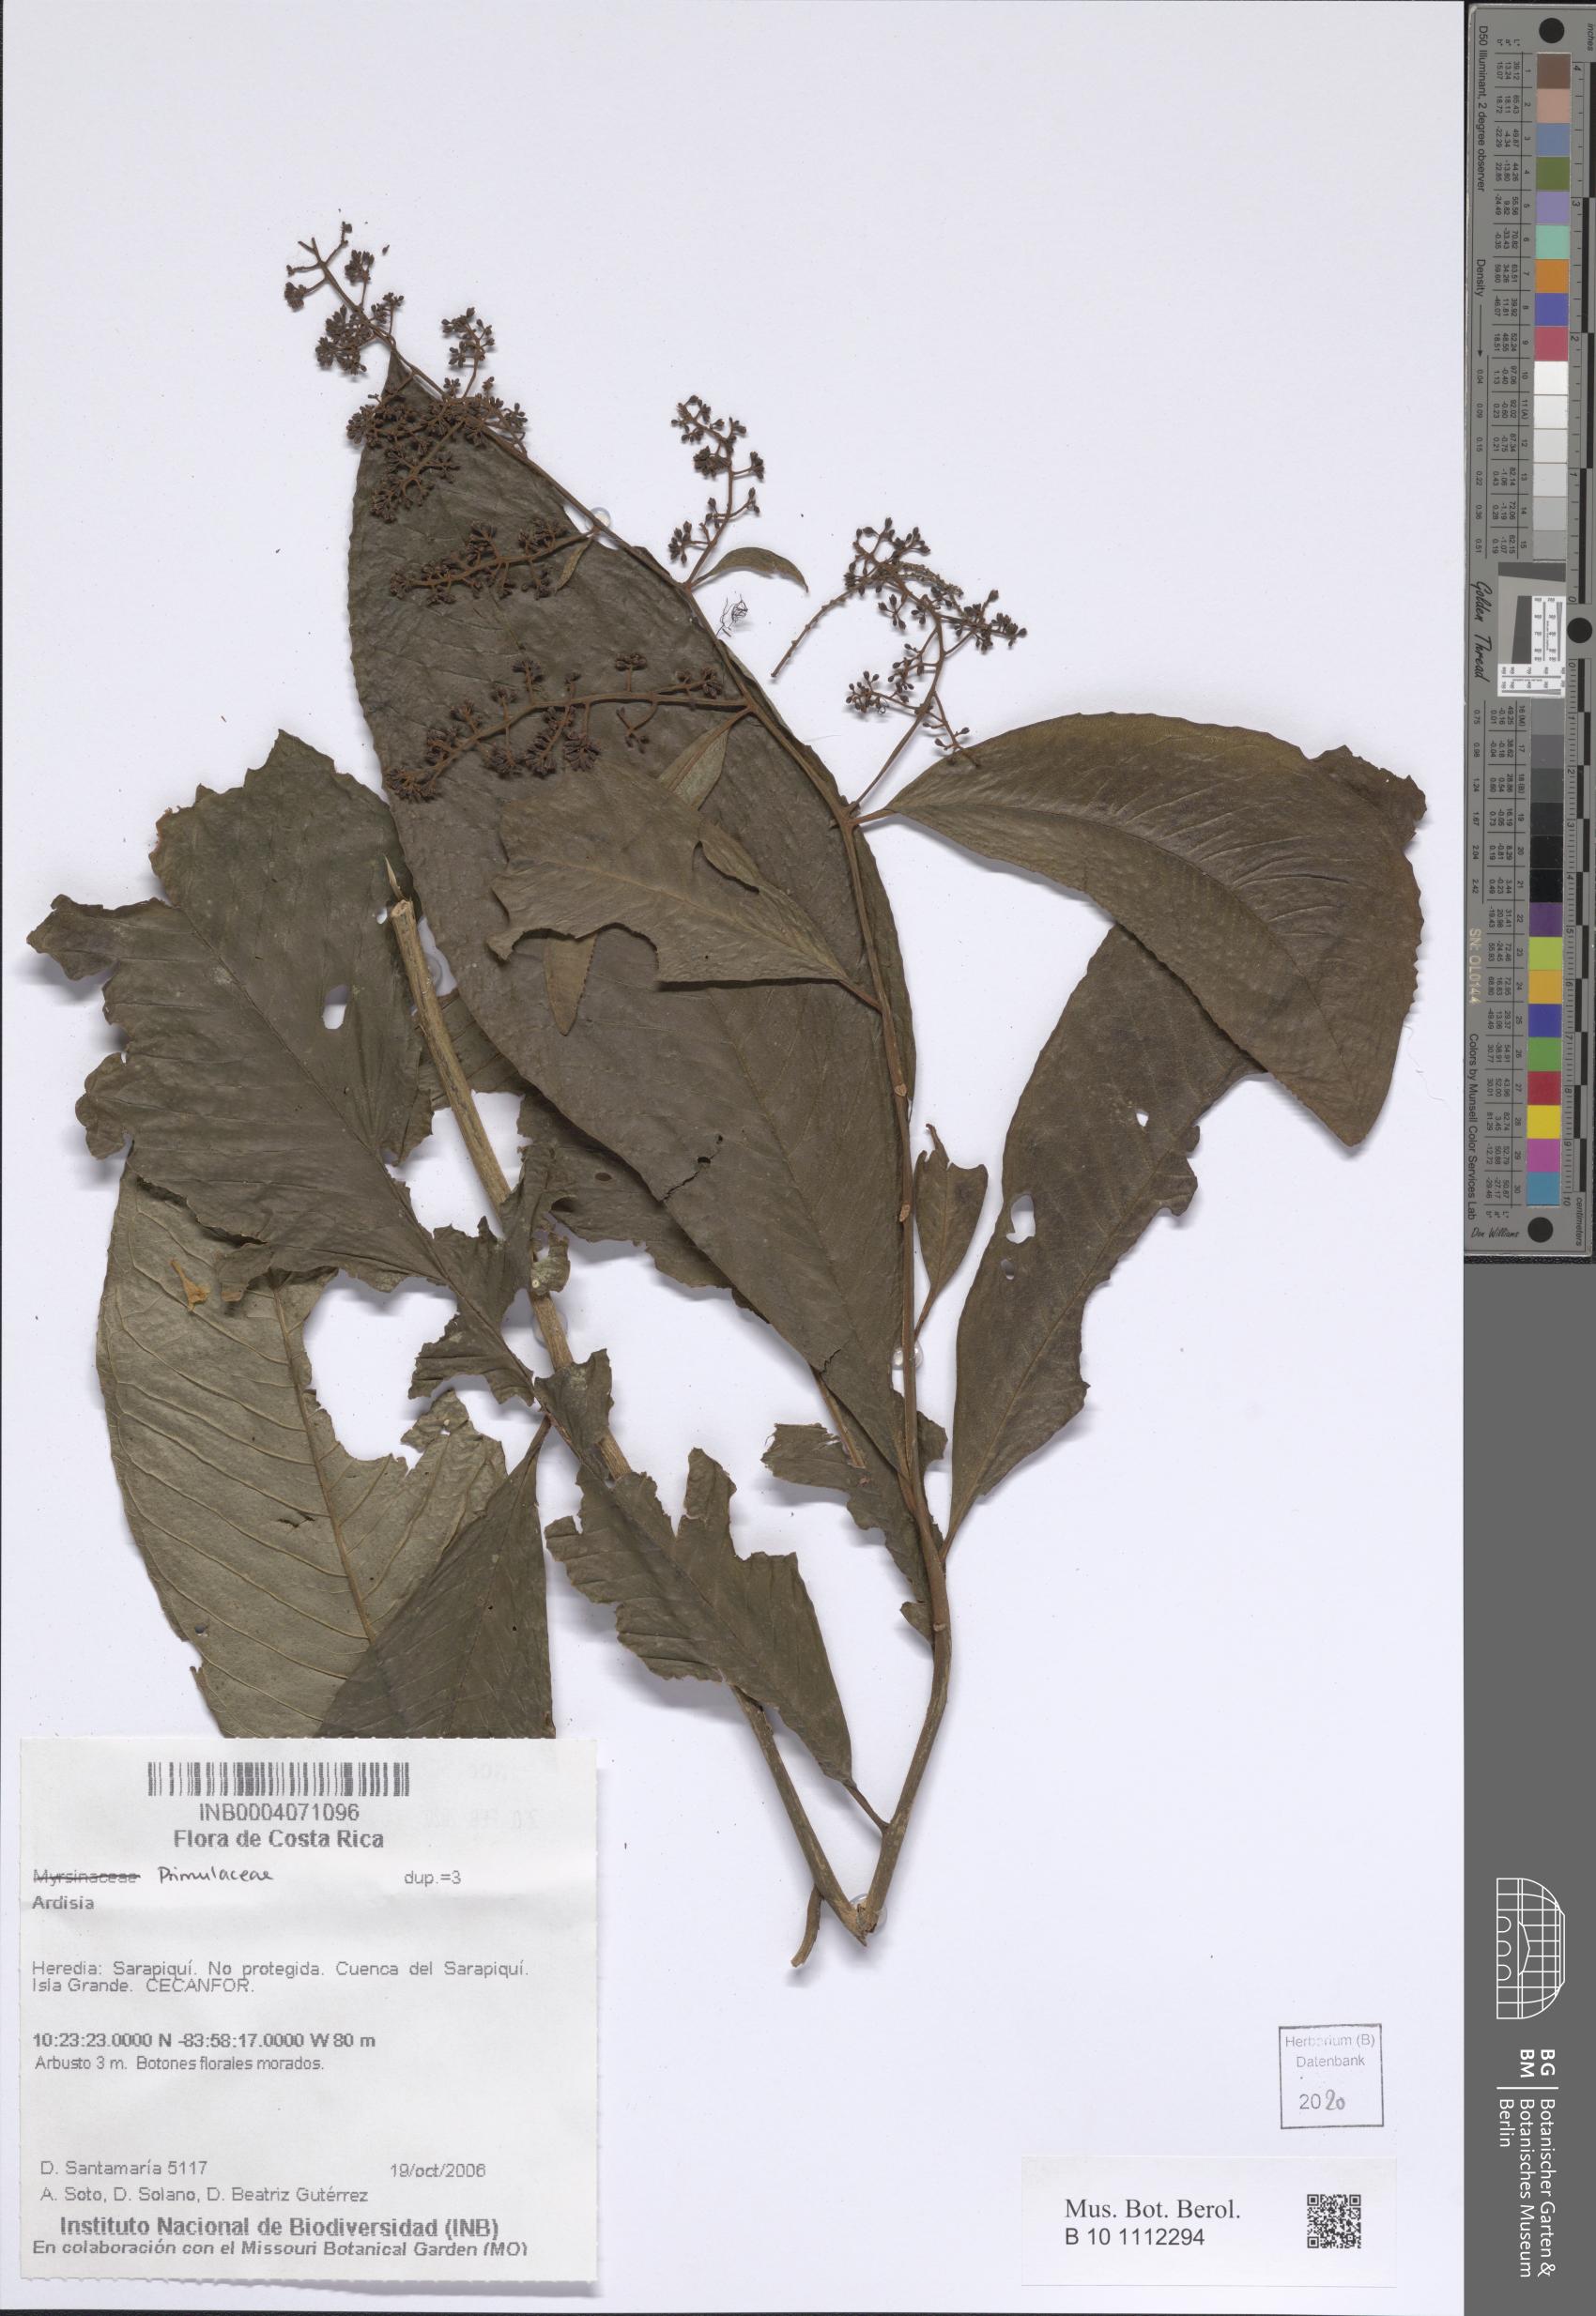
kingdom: Plantae
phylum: Tracheophyta
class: Magnoliopsida
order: Ericales
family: Primulaceae
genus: Ardisia
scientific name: Ardisia
